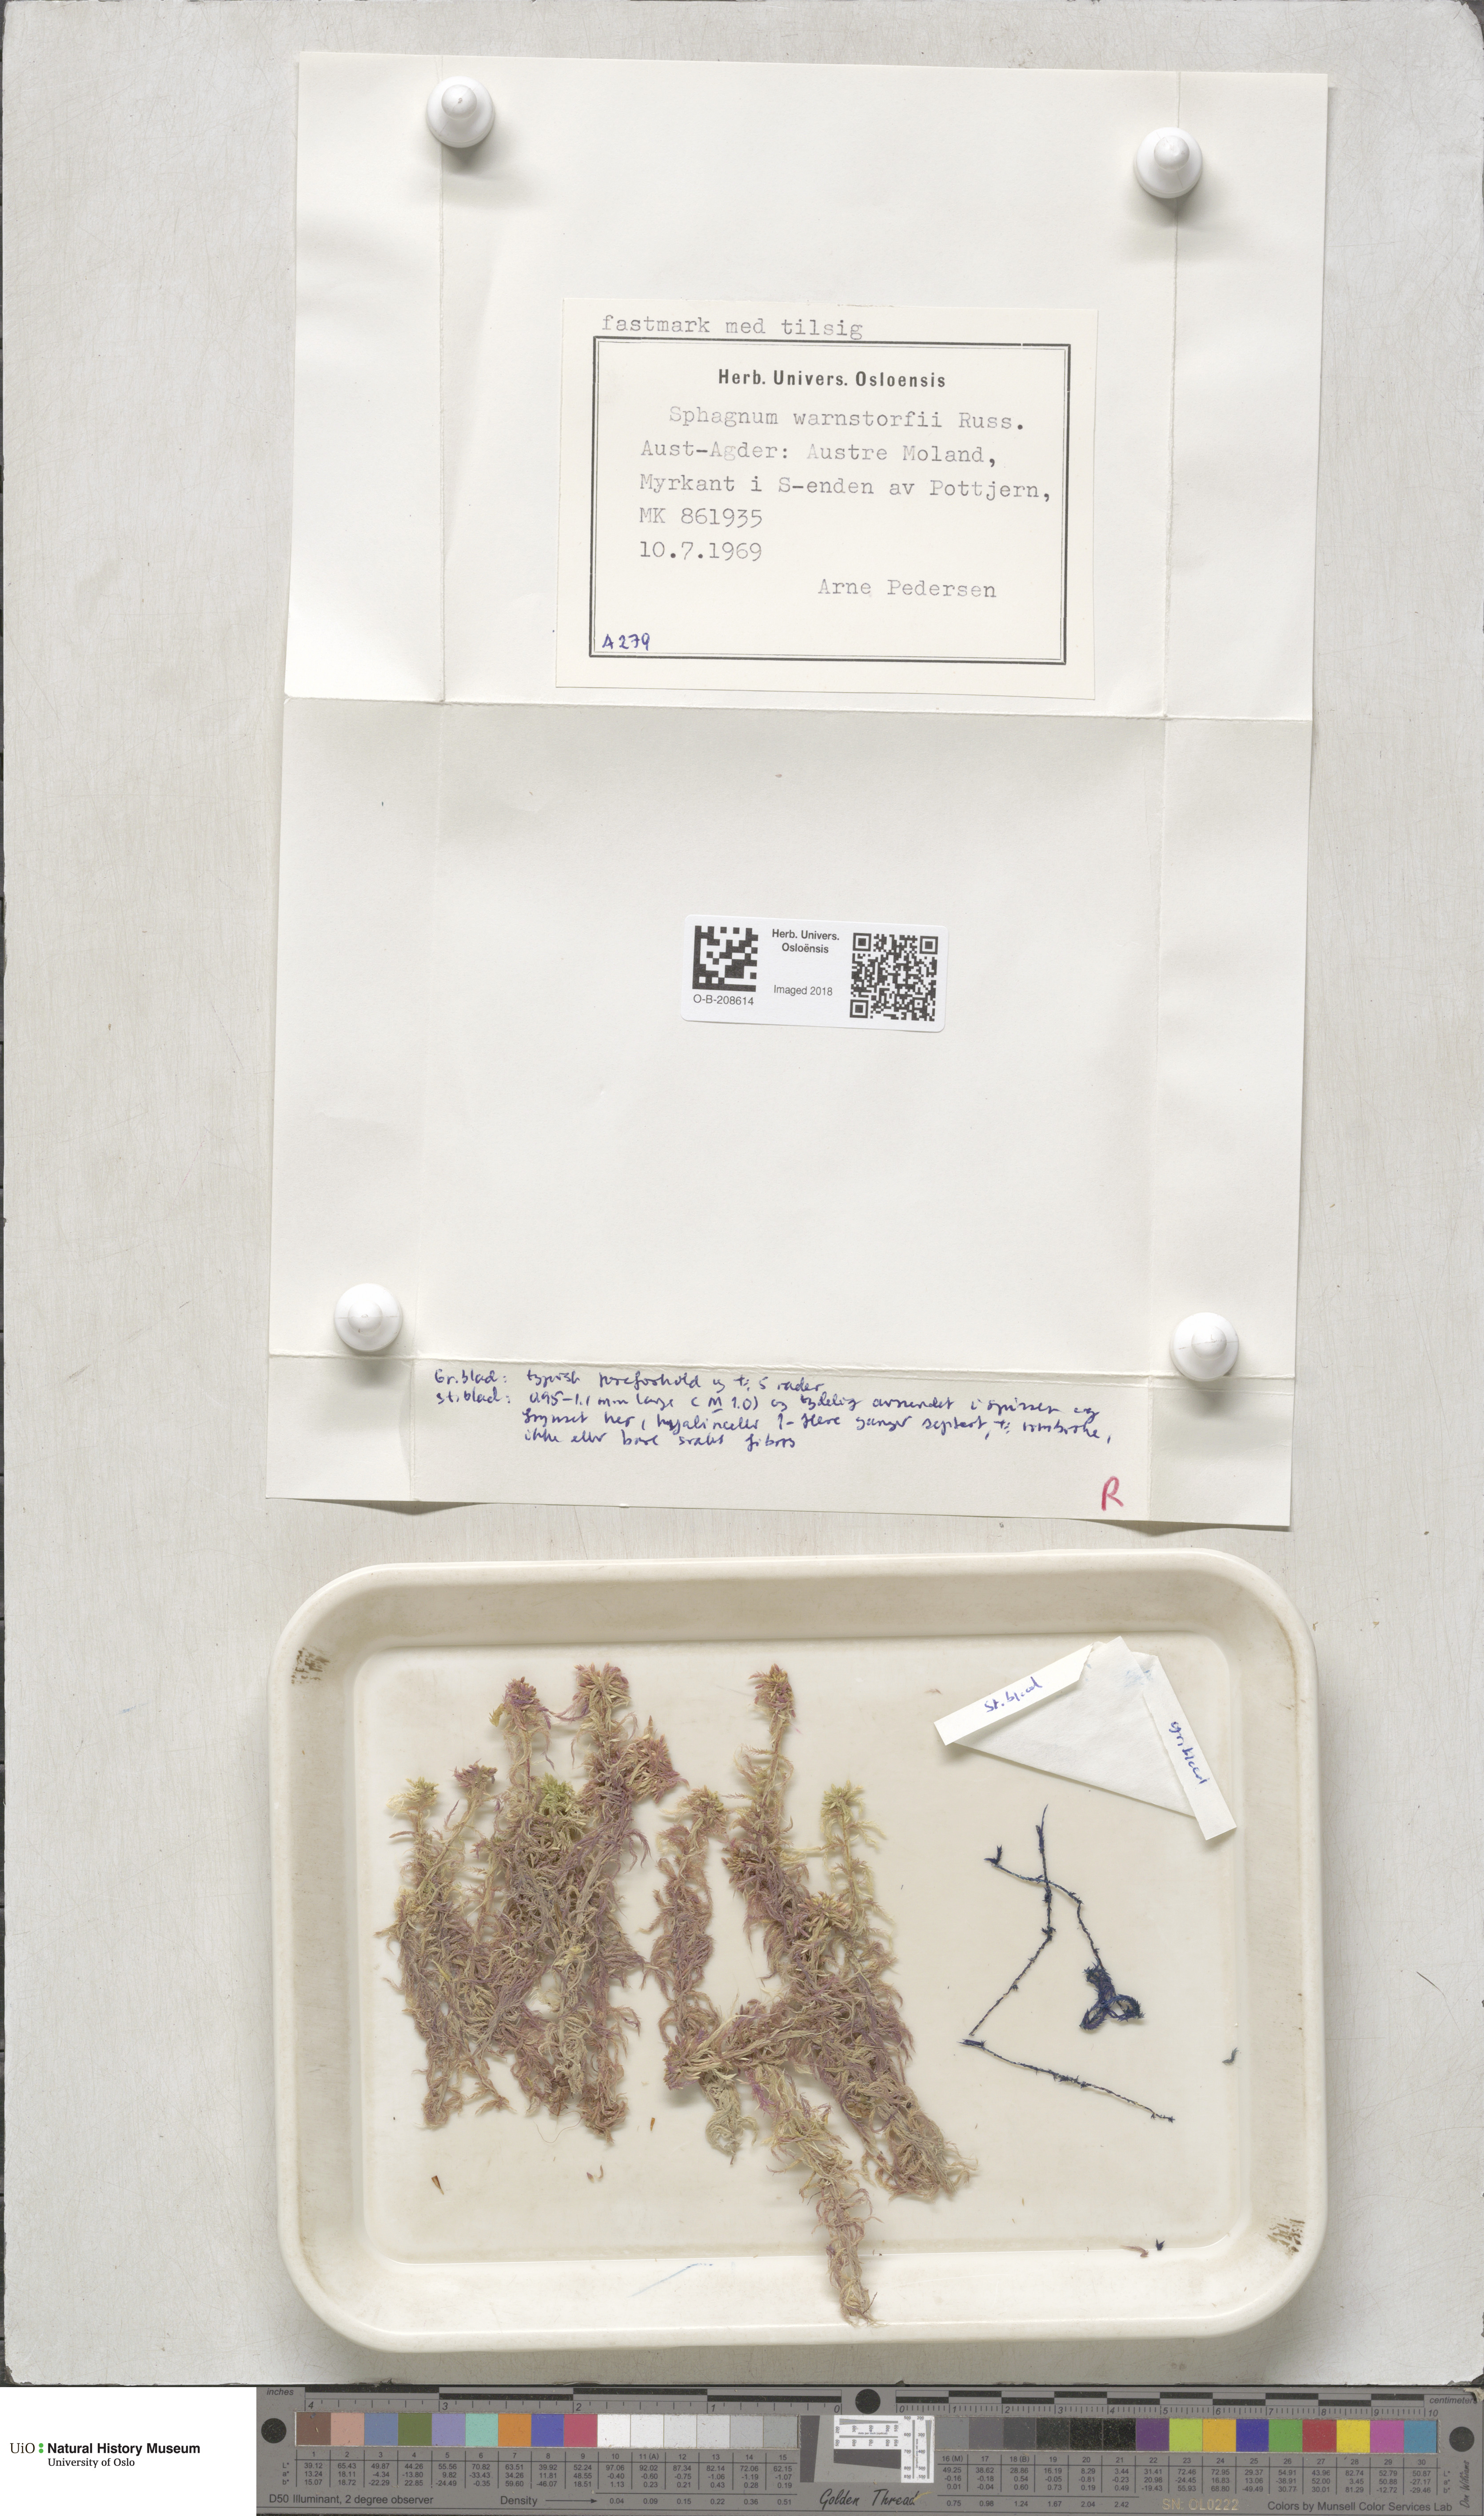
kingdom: Plantae
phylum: Bryophyta
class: Sphagnopsida
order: Sphagnales
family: Sphagnaceae
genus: Sphagnum
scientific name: Sphagnum warnstorfii
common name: Warnstorf's peat moss
